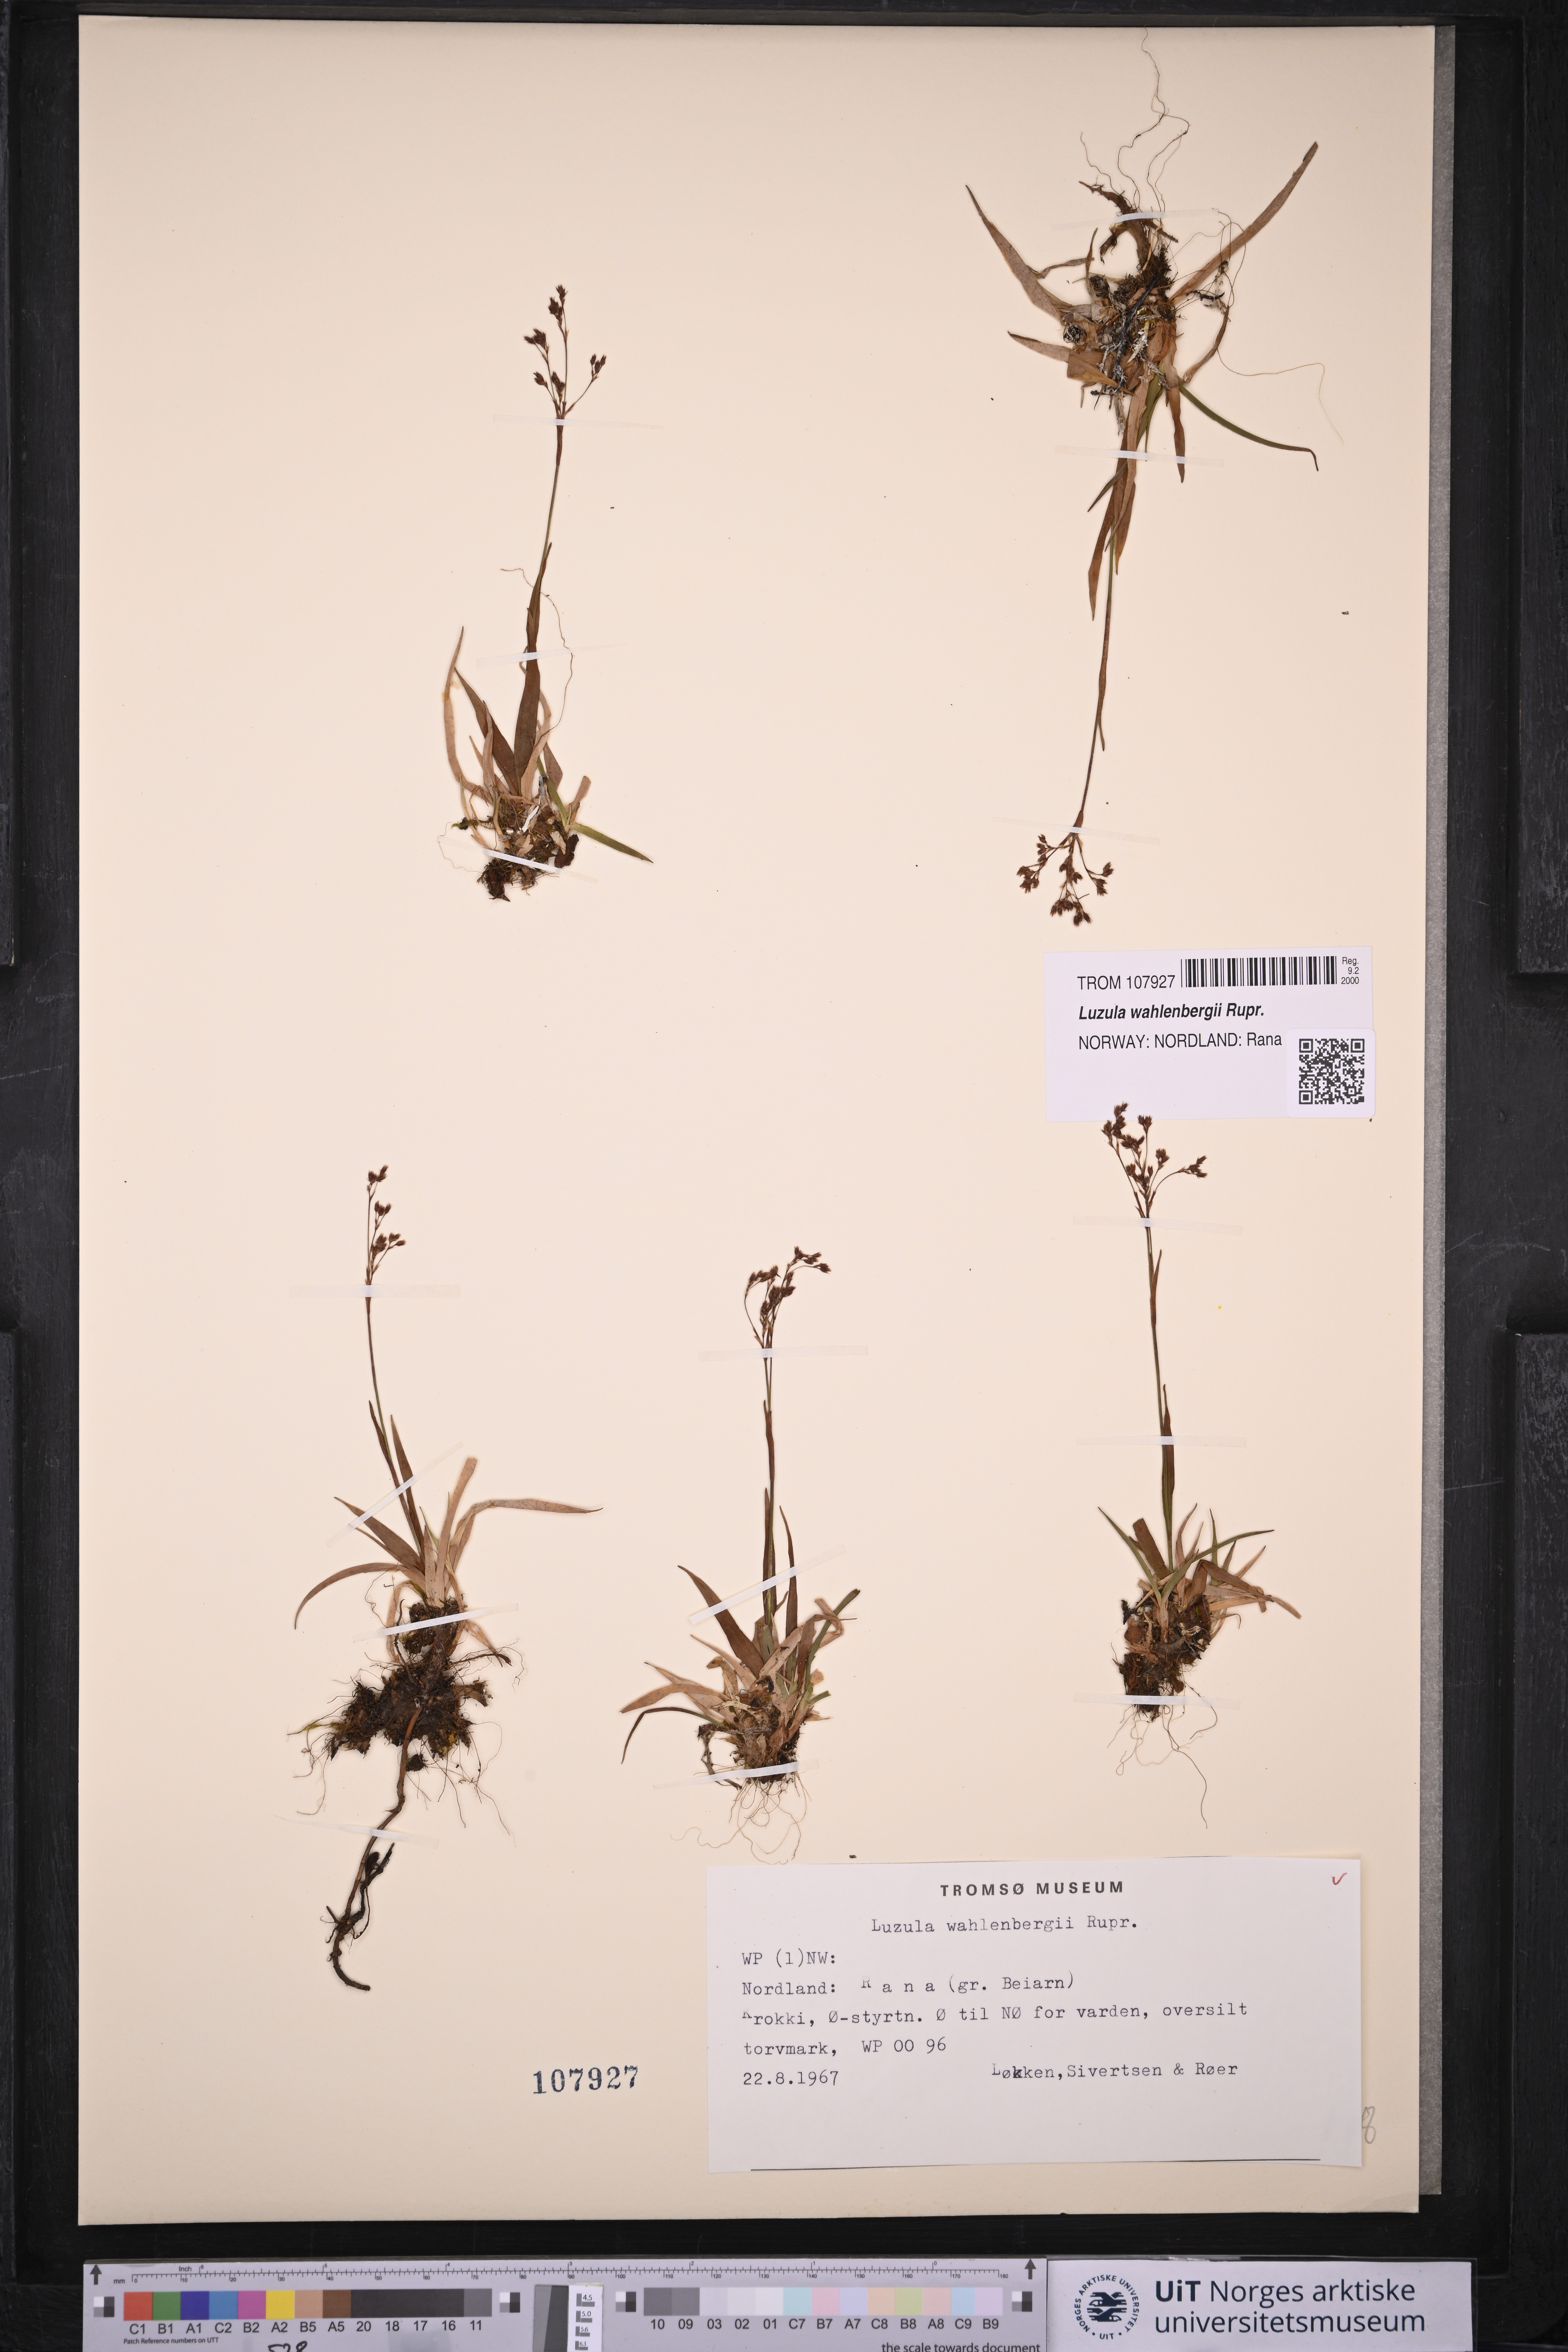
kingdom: Plantae
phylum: Tracheophyta
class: Liliopsida
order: Poales
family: Juncaceae
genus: Luzula
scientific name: Luzula wahlenbergii
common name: Wahlenberg's wood-rush
